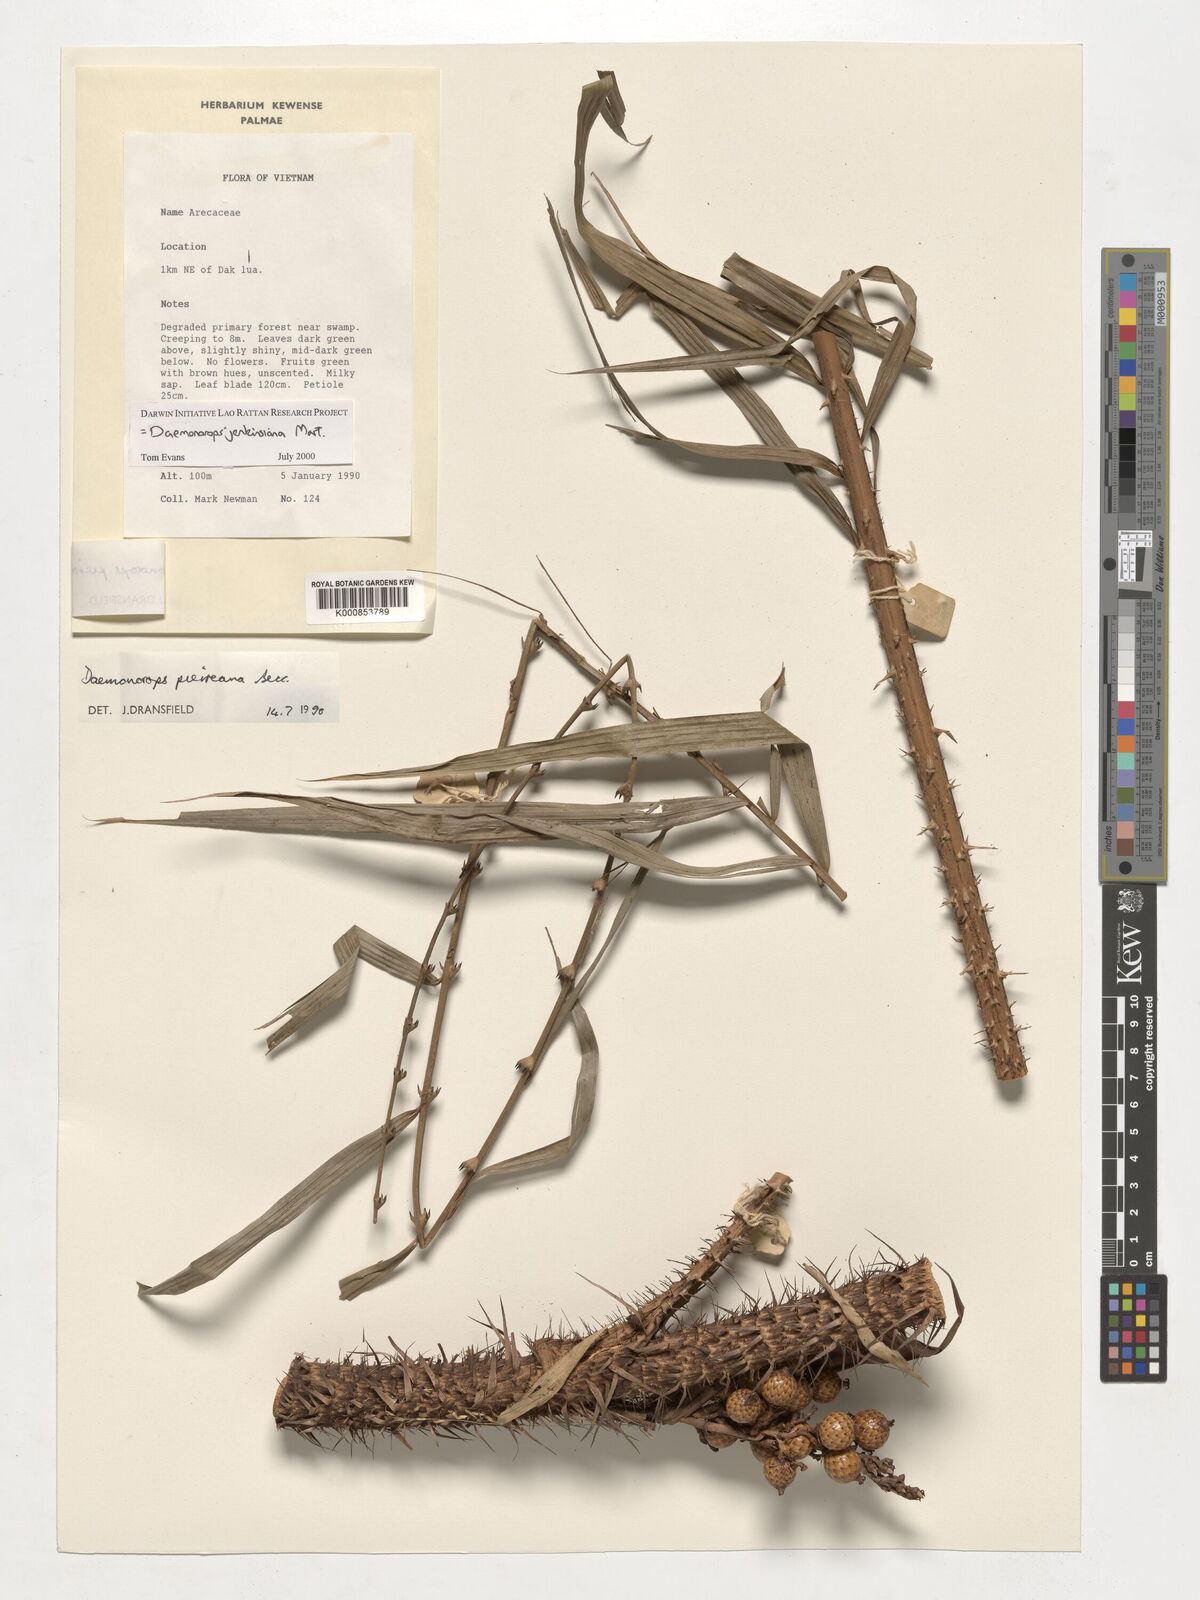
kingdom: Plantae
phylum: Tracheophyta
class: Liliopsida
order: Arecales
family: Arecaceae
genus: Calamus
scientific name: Calamus melanochaetes
